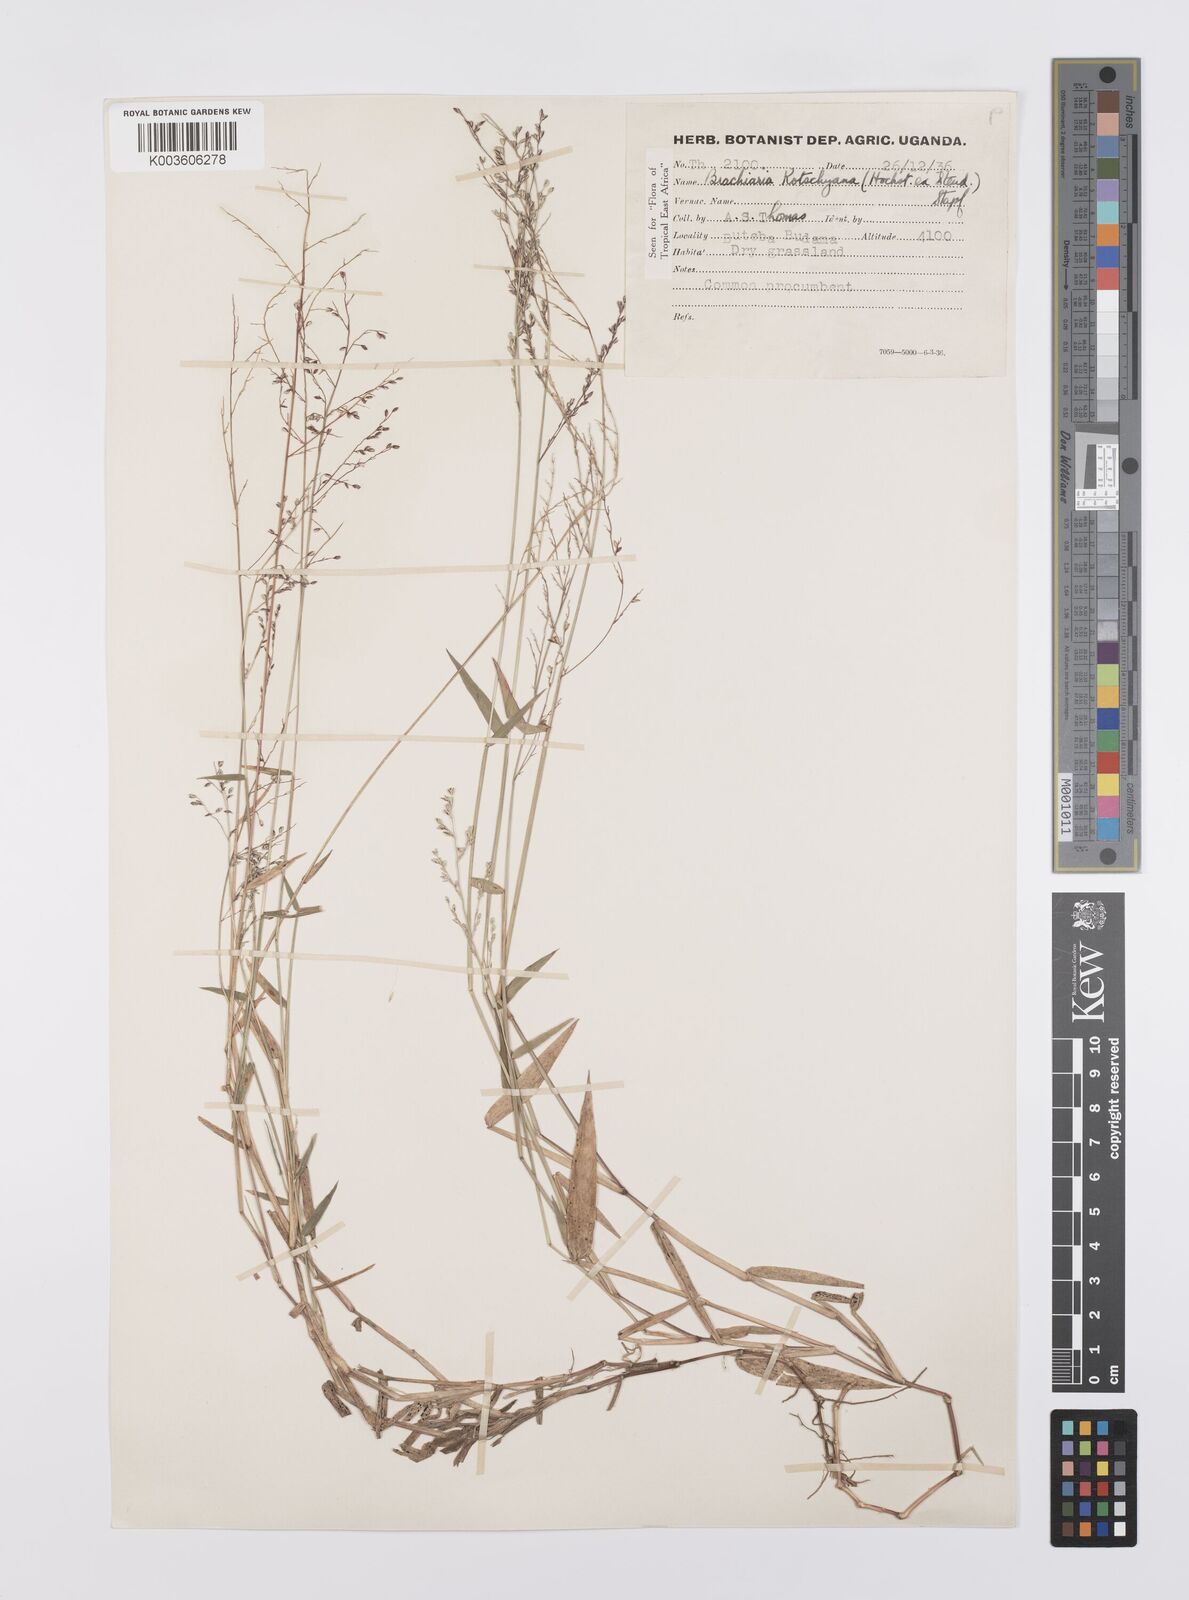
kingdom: Plantae
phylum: Tracheophyta
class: Liliopsida
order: Poales
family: Poaceae
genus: Urochloa
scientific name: Urochloa comata
